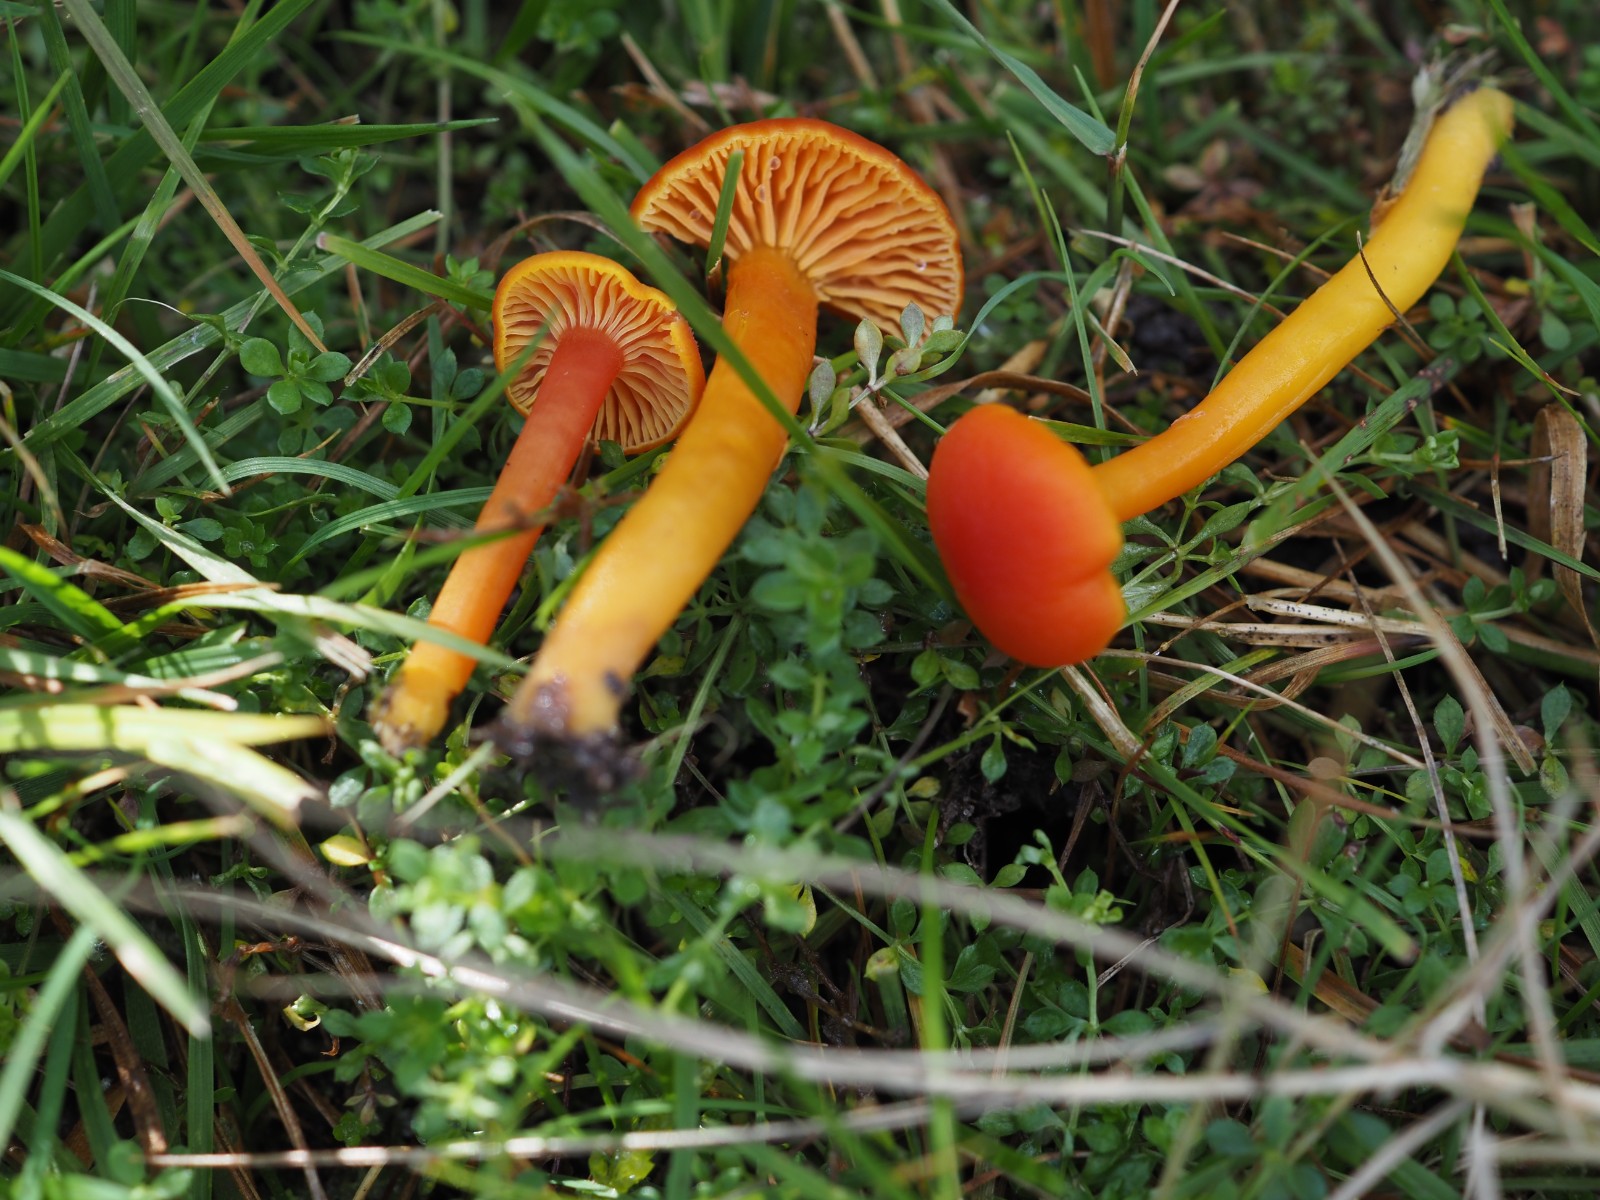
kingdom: Fungi
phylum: Basidiomycota
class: Agaricomycetes
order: Agaricales
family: Hygrophoraceae
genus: Hygrocybe
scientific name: Hygrocybe miniata
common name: mønje-vokshat
